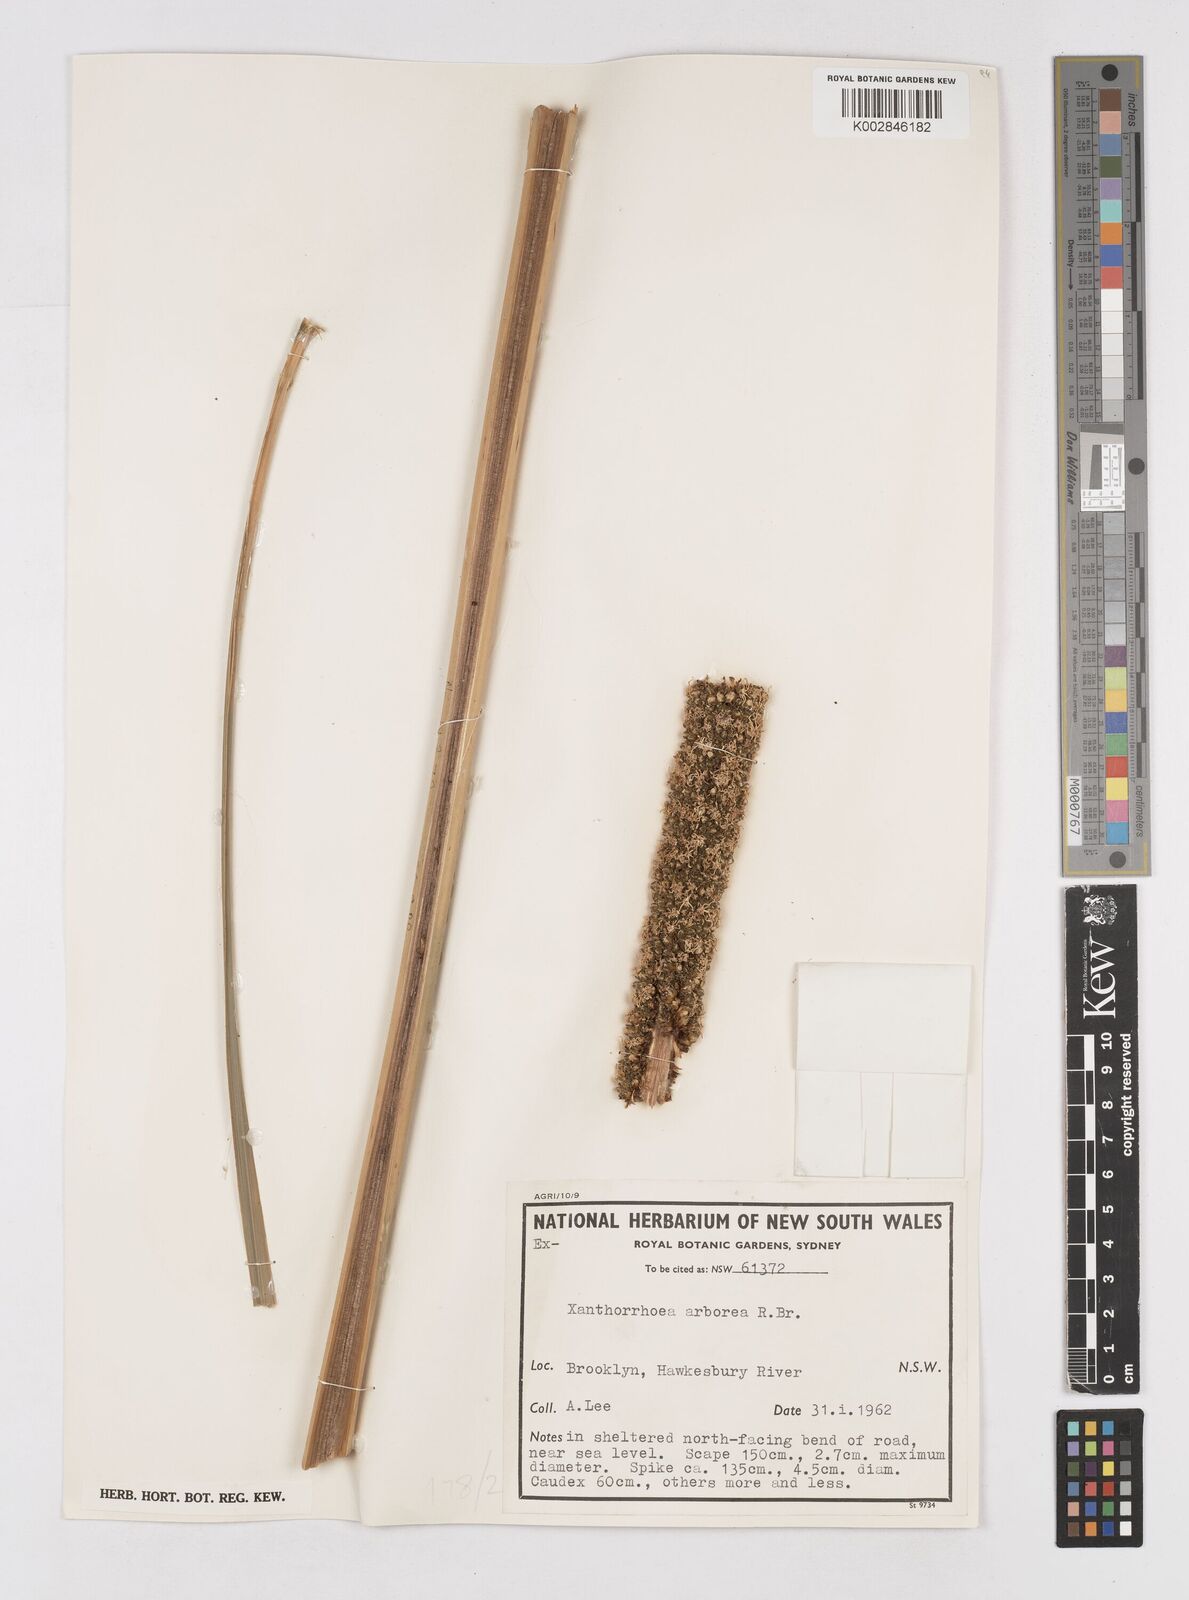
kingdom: Plantae
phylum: Tracheophyta
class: Liliopsida
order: Asparagales
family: Asphodelaceae
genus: Xanthorrhoea
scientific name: Xanthorrhoea arborea
